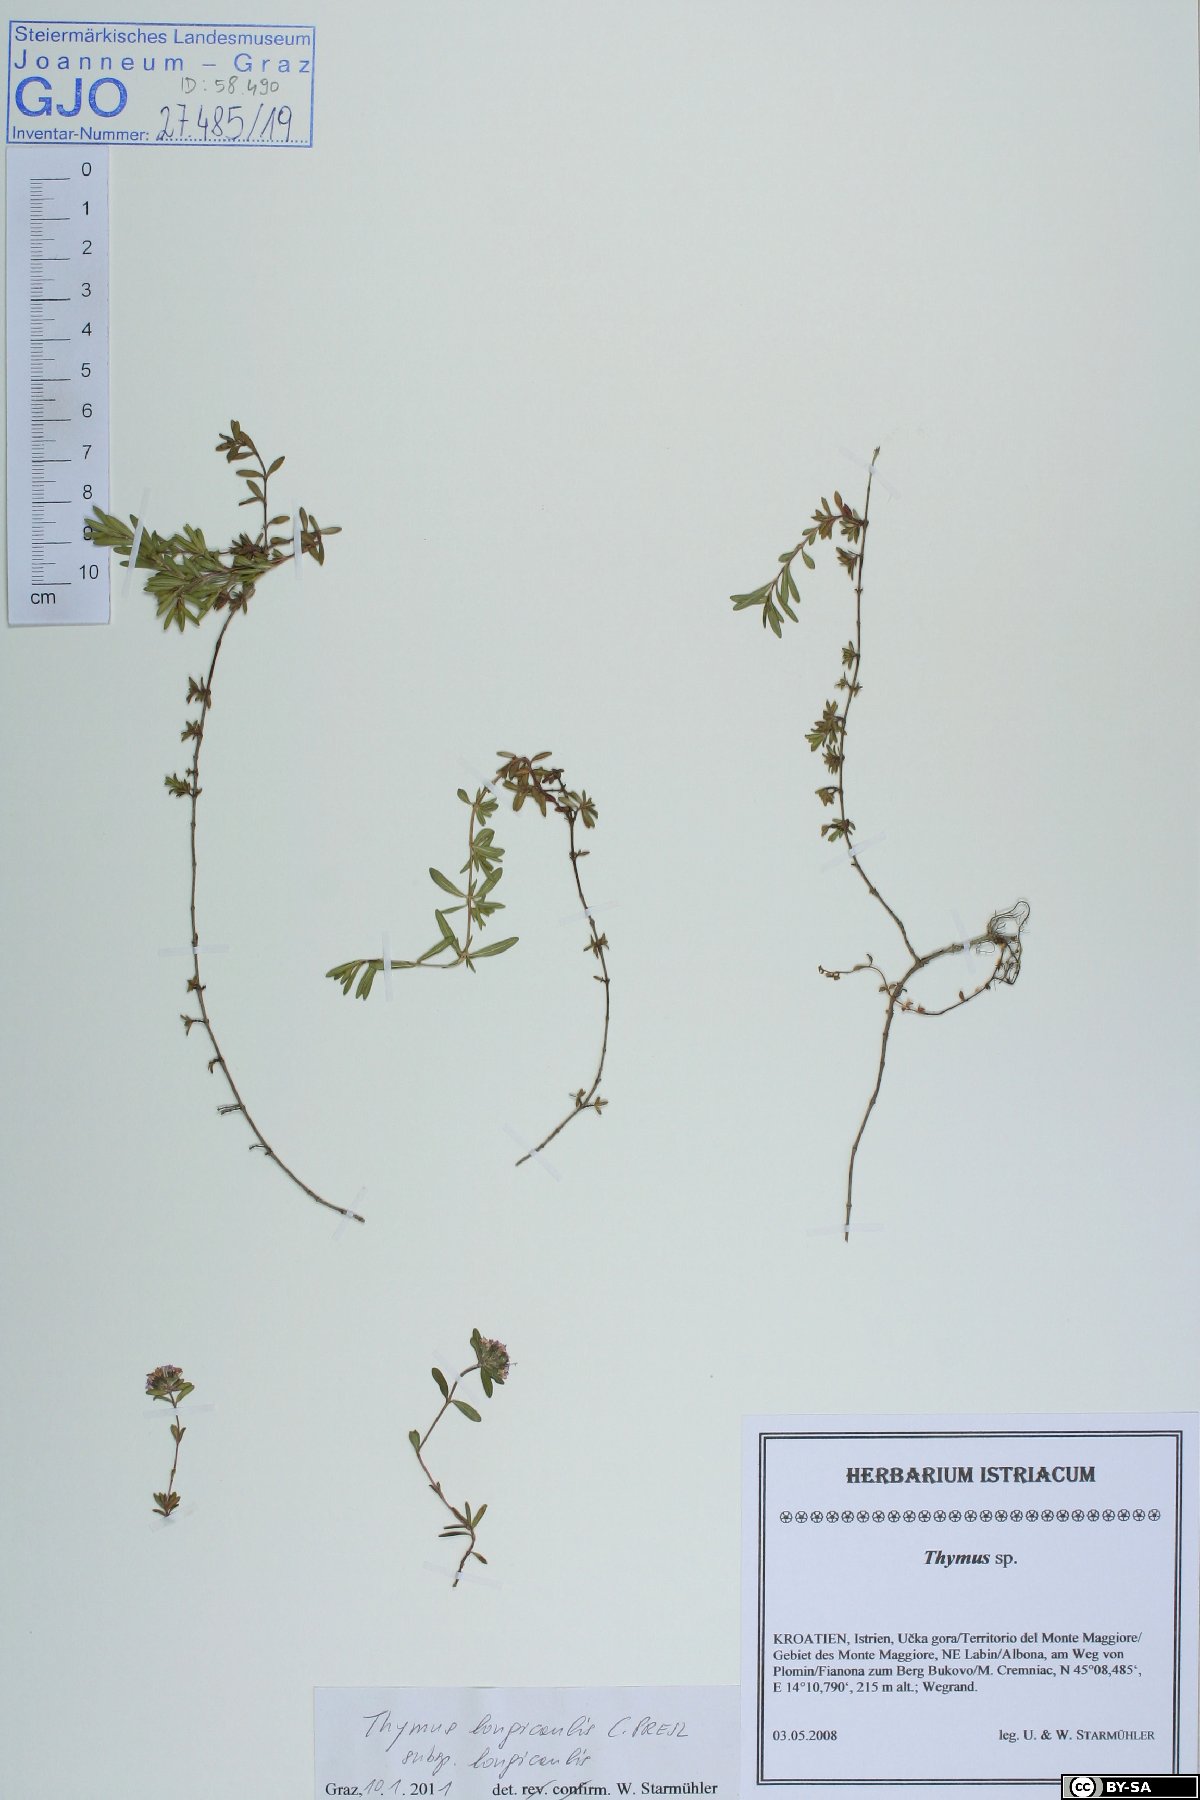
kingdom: Plantae
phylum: Tracheophyta
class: Magnoliopsida
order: Lamiales
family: Lamiaceae
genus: Thymus
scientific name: Thymus longicaulis
